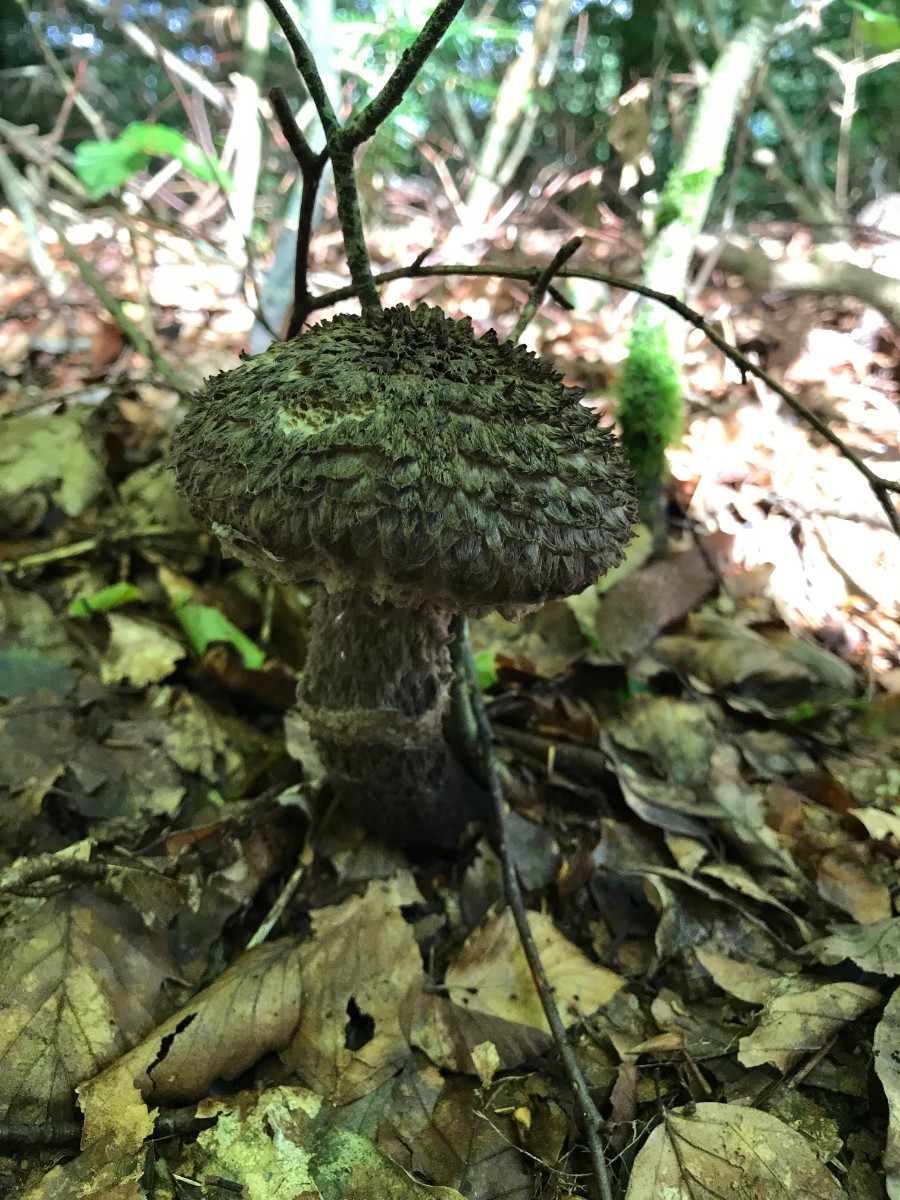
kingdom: Fungi
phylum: Basidiomycota
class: Agaricomycetes
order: Boletales
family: Boletaceae
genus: Strobilomyces
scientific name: Strobilomyces strobilaceus
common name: koglerørhat
